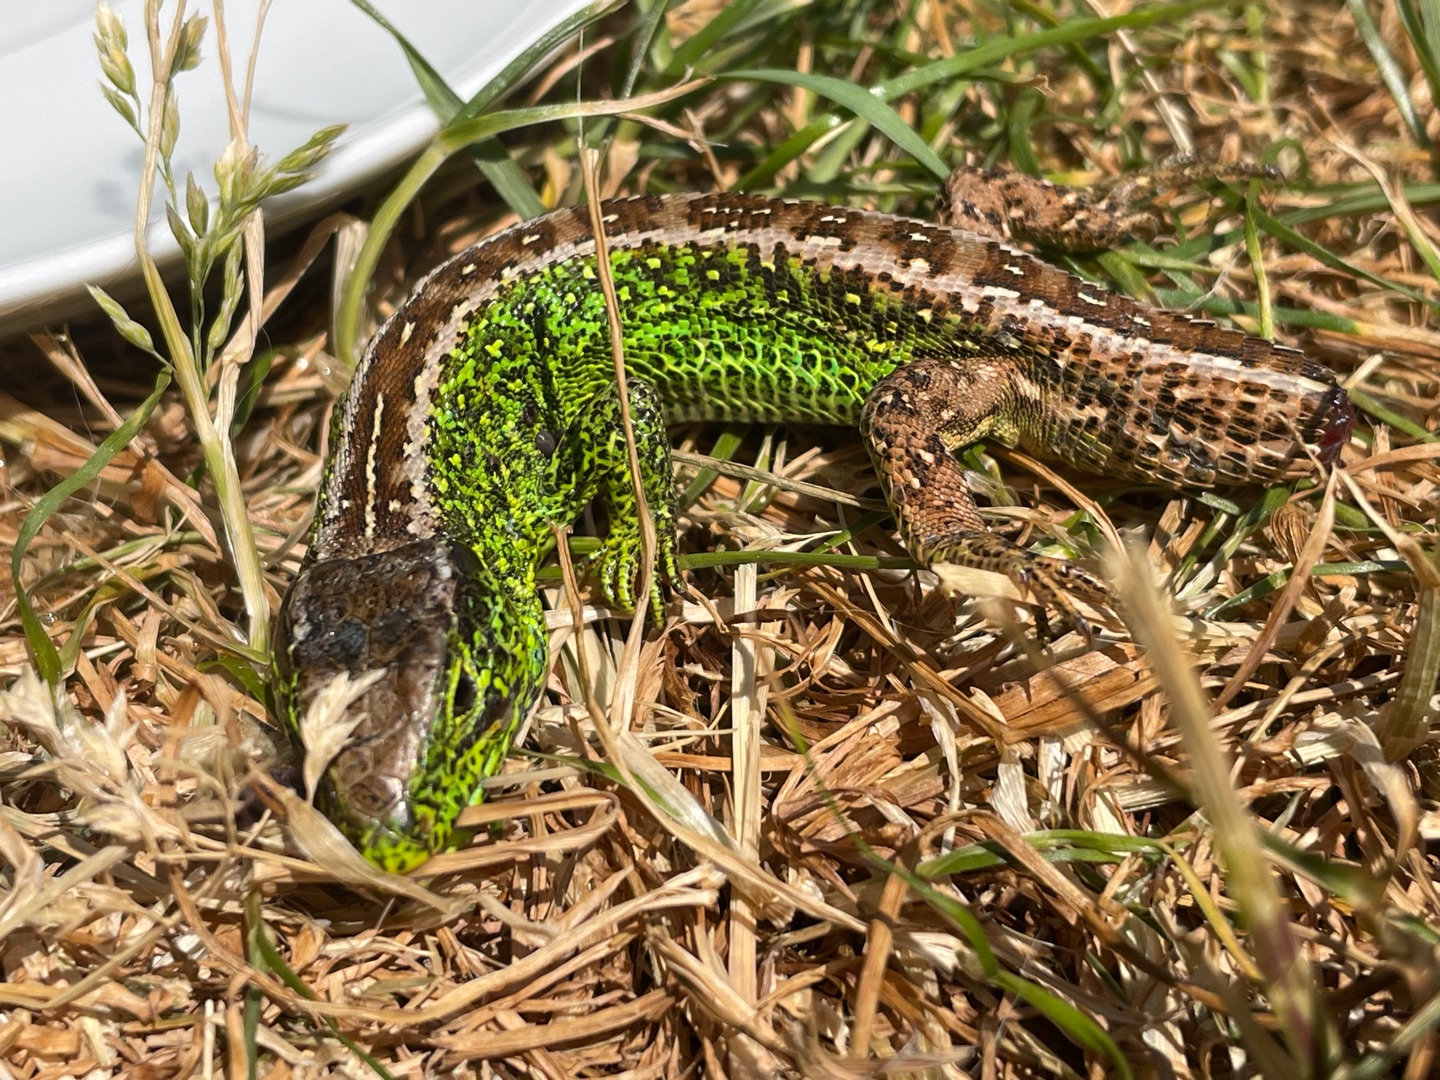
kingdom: Animalia
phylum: Chordata
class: Squamata
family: Lacertidae
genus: Lacerta
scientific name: Lacerta agilis
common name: Markfirben
